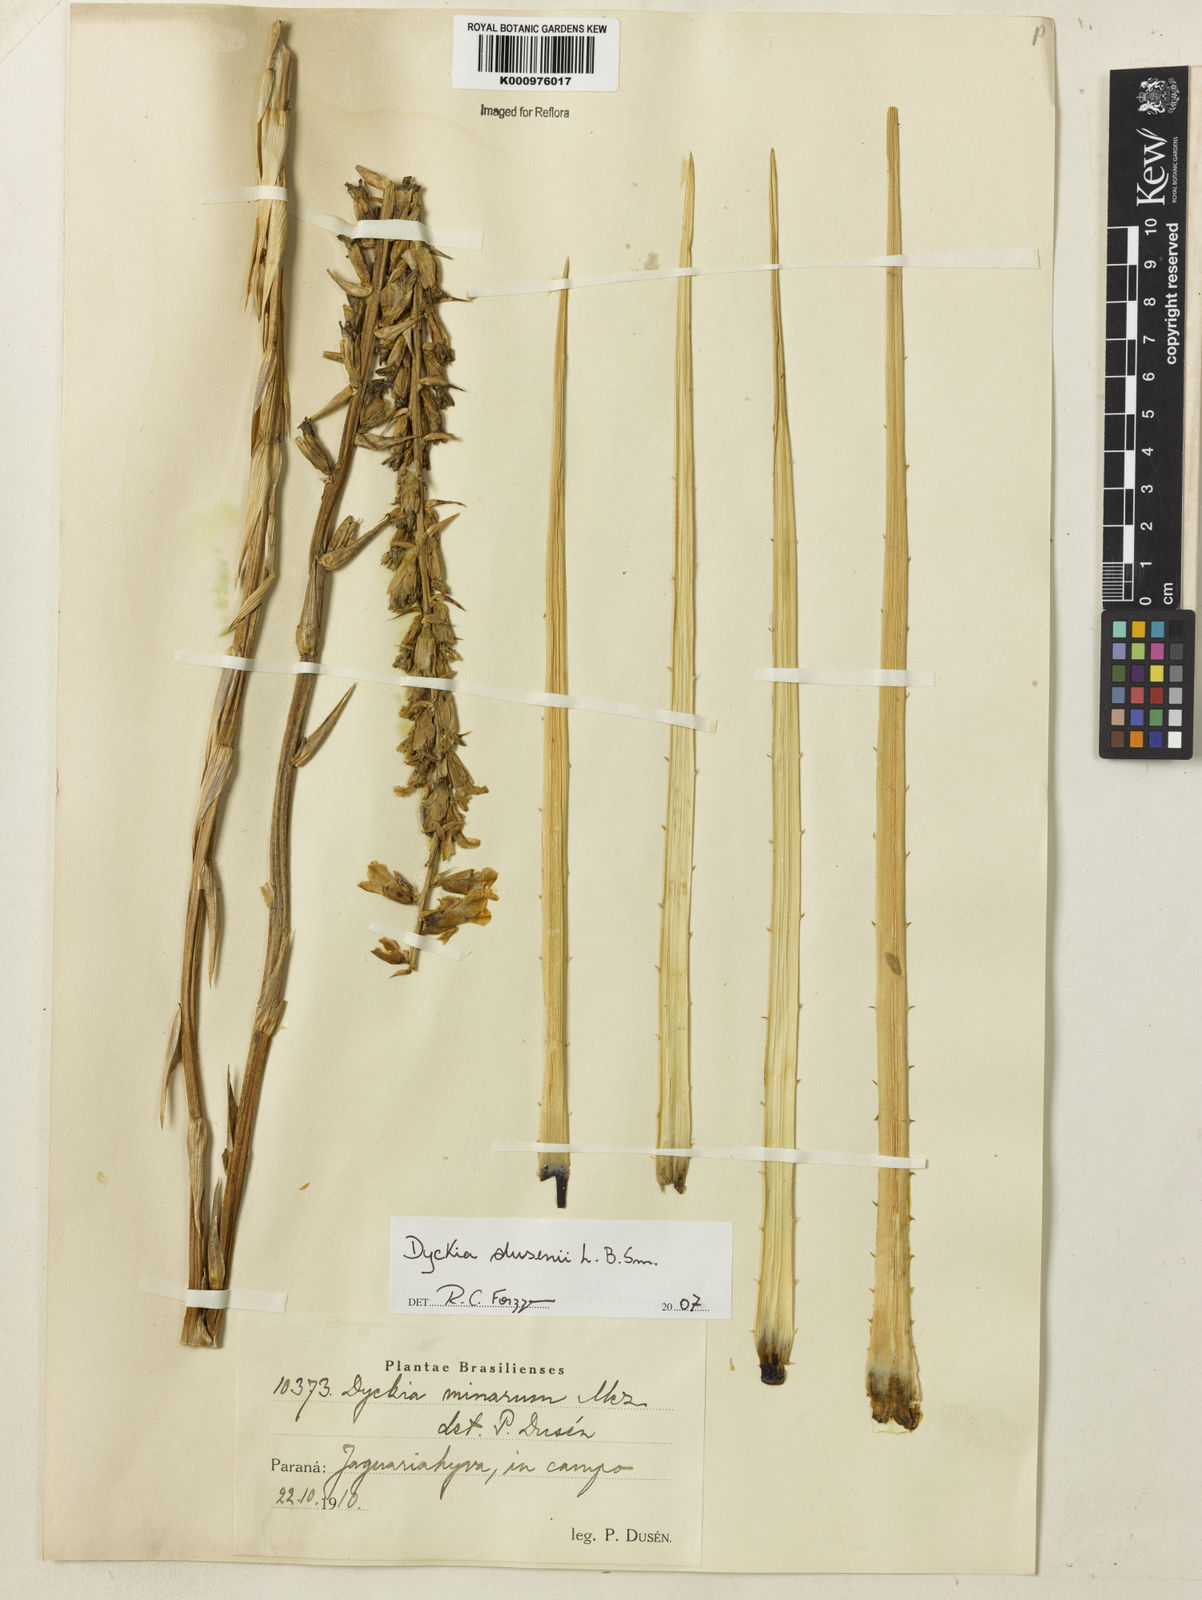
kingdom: Plantae
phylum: Tracheophyta
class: Liliopsida
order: Poales
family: Bromeliaceae
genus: Dyckia
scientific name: Dyckia dusenii
